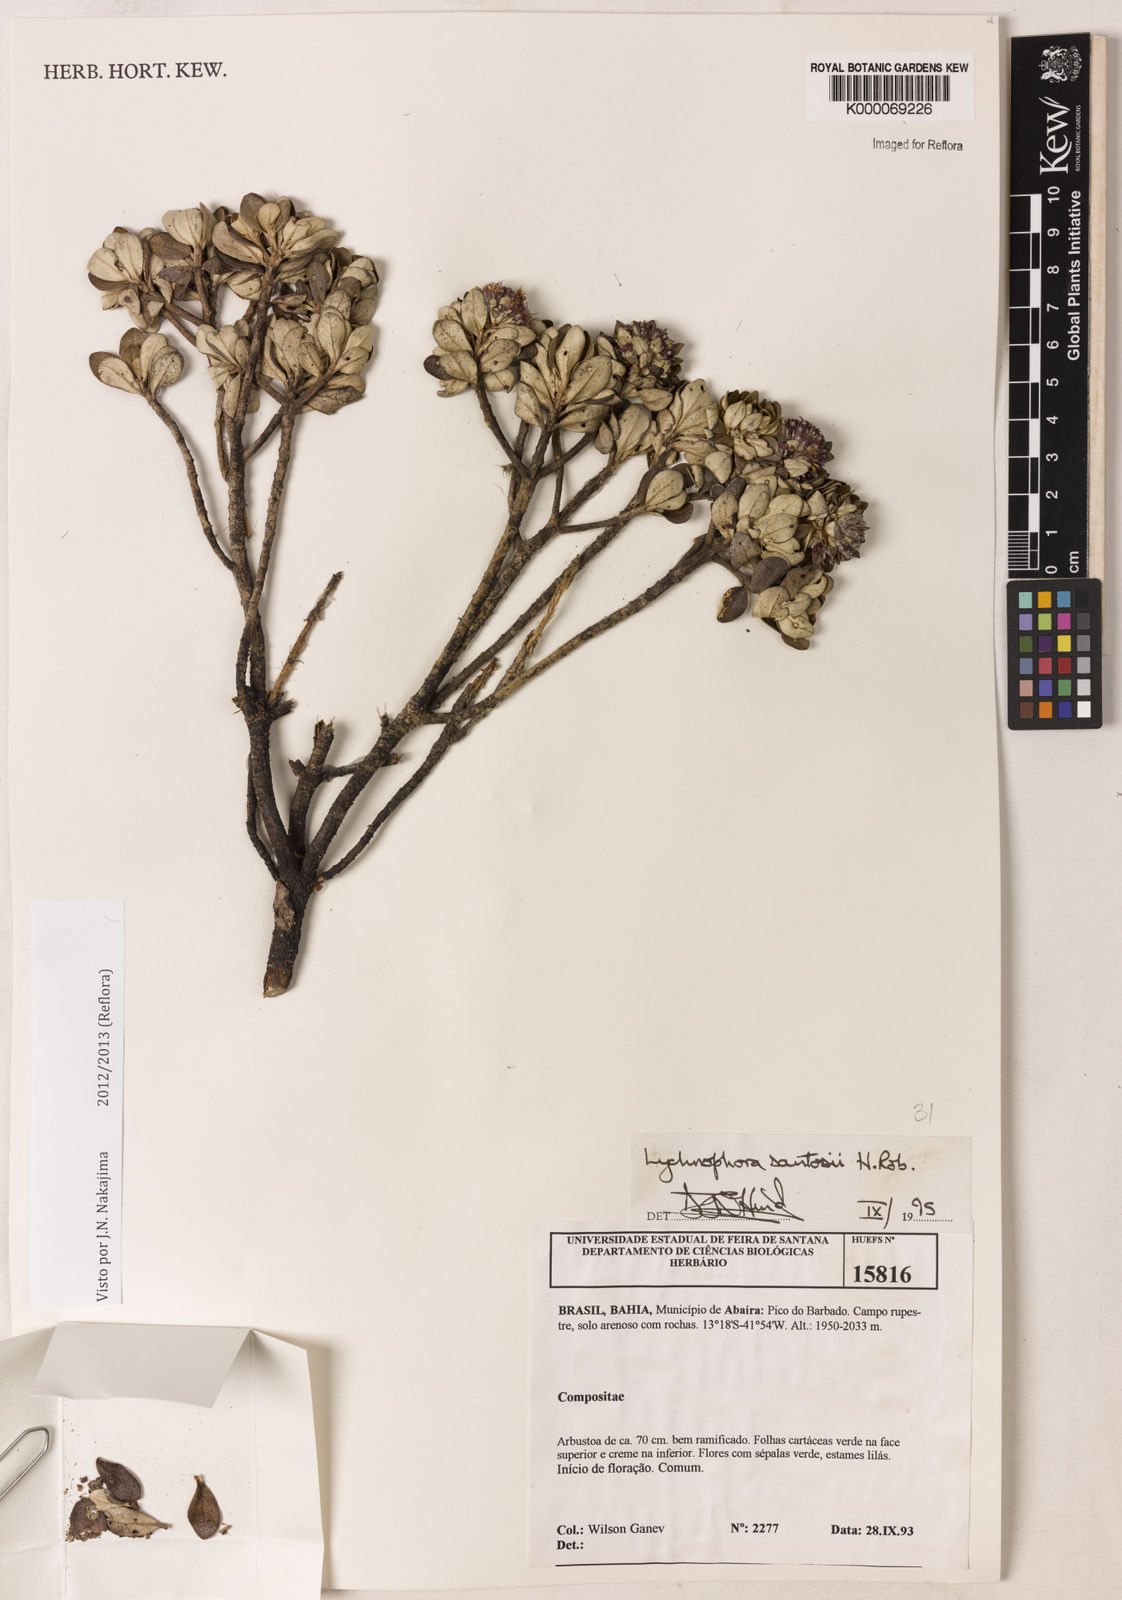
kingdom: Plantae
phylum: Tracheophyta
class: Magnoliopsida
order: Asterales
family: Asteraceae
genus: Lychnophorella
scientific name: Lychnophorella santosii
